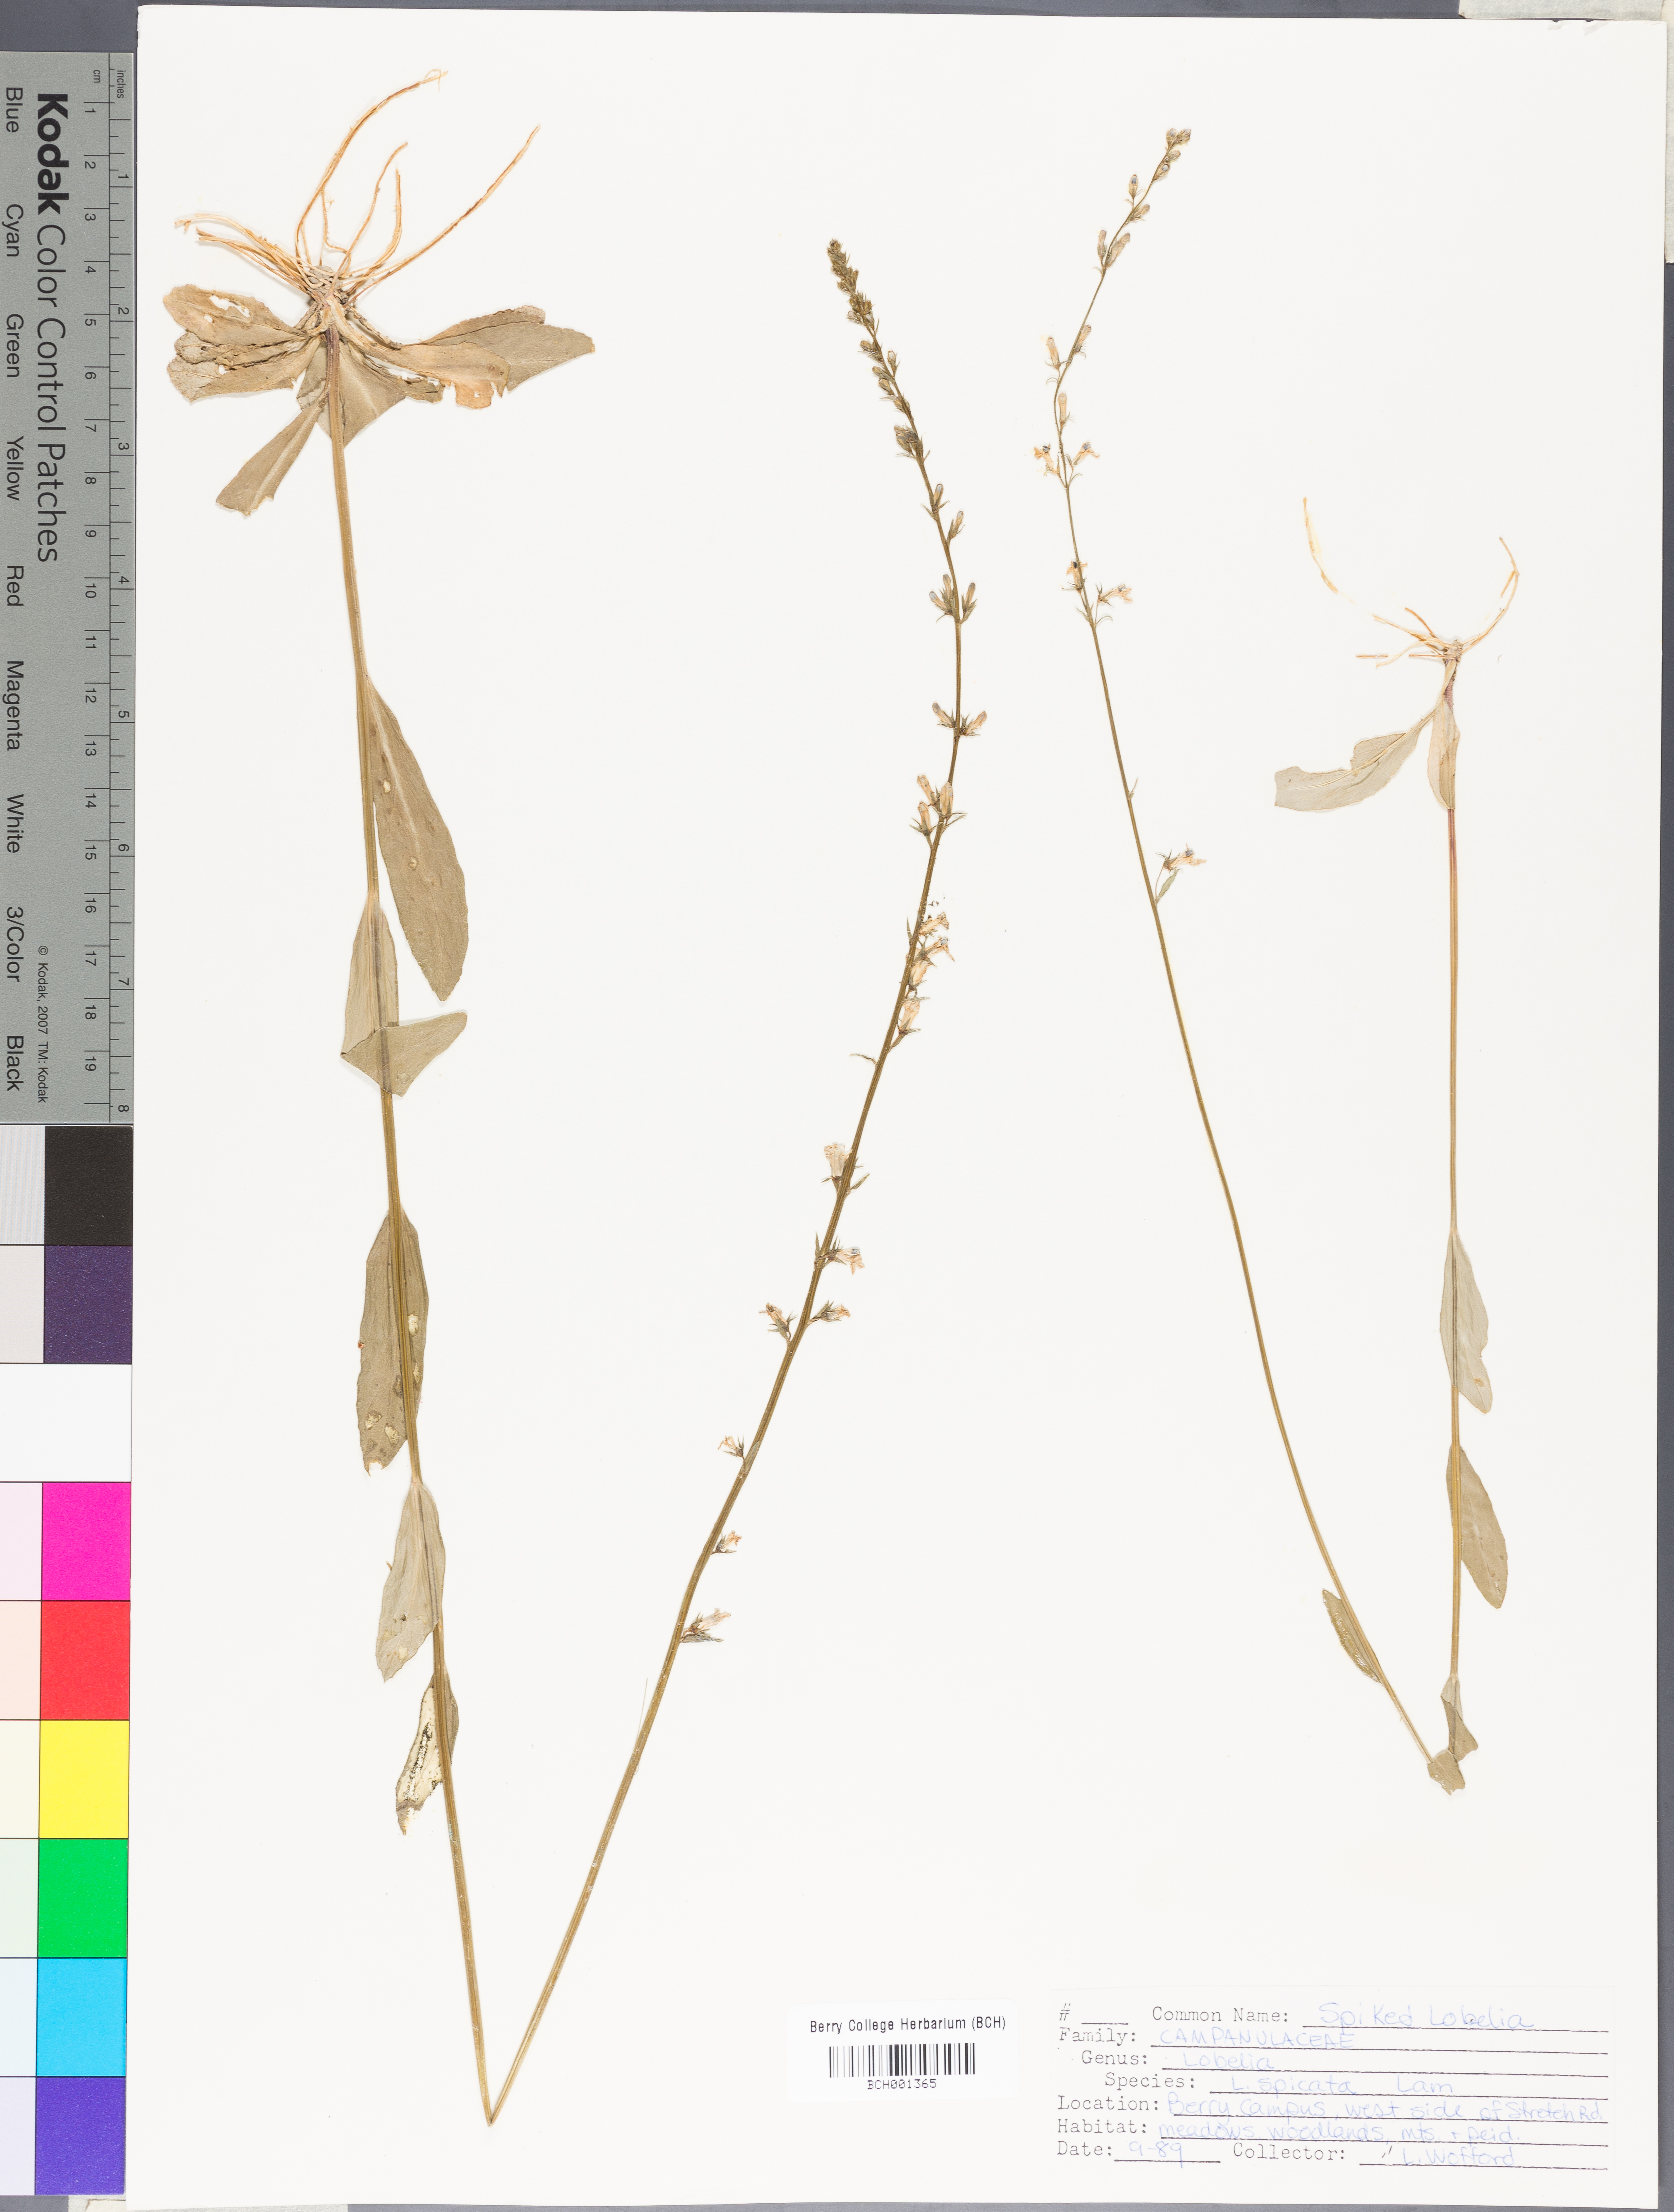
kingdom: Plantae
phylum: Tracheophyta
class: Magnoliopsida
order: Asterales
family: Campanulaceae
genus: Lobelia
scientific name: Lobelia spicata
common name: Pale-spike lobelia
